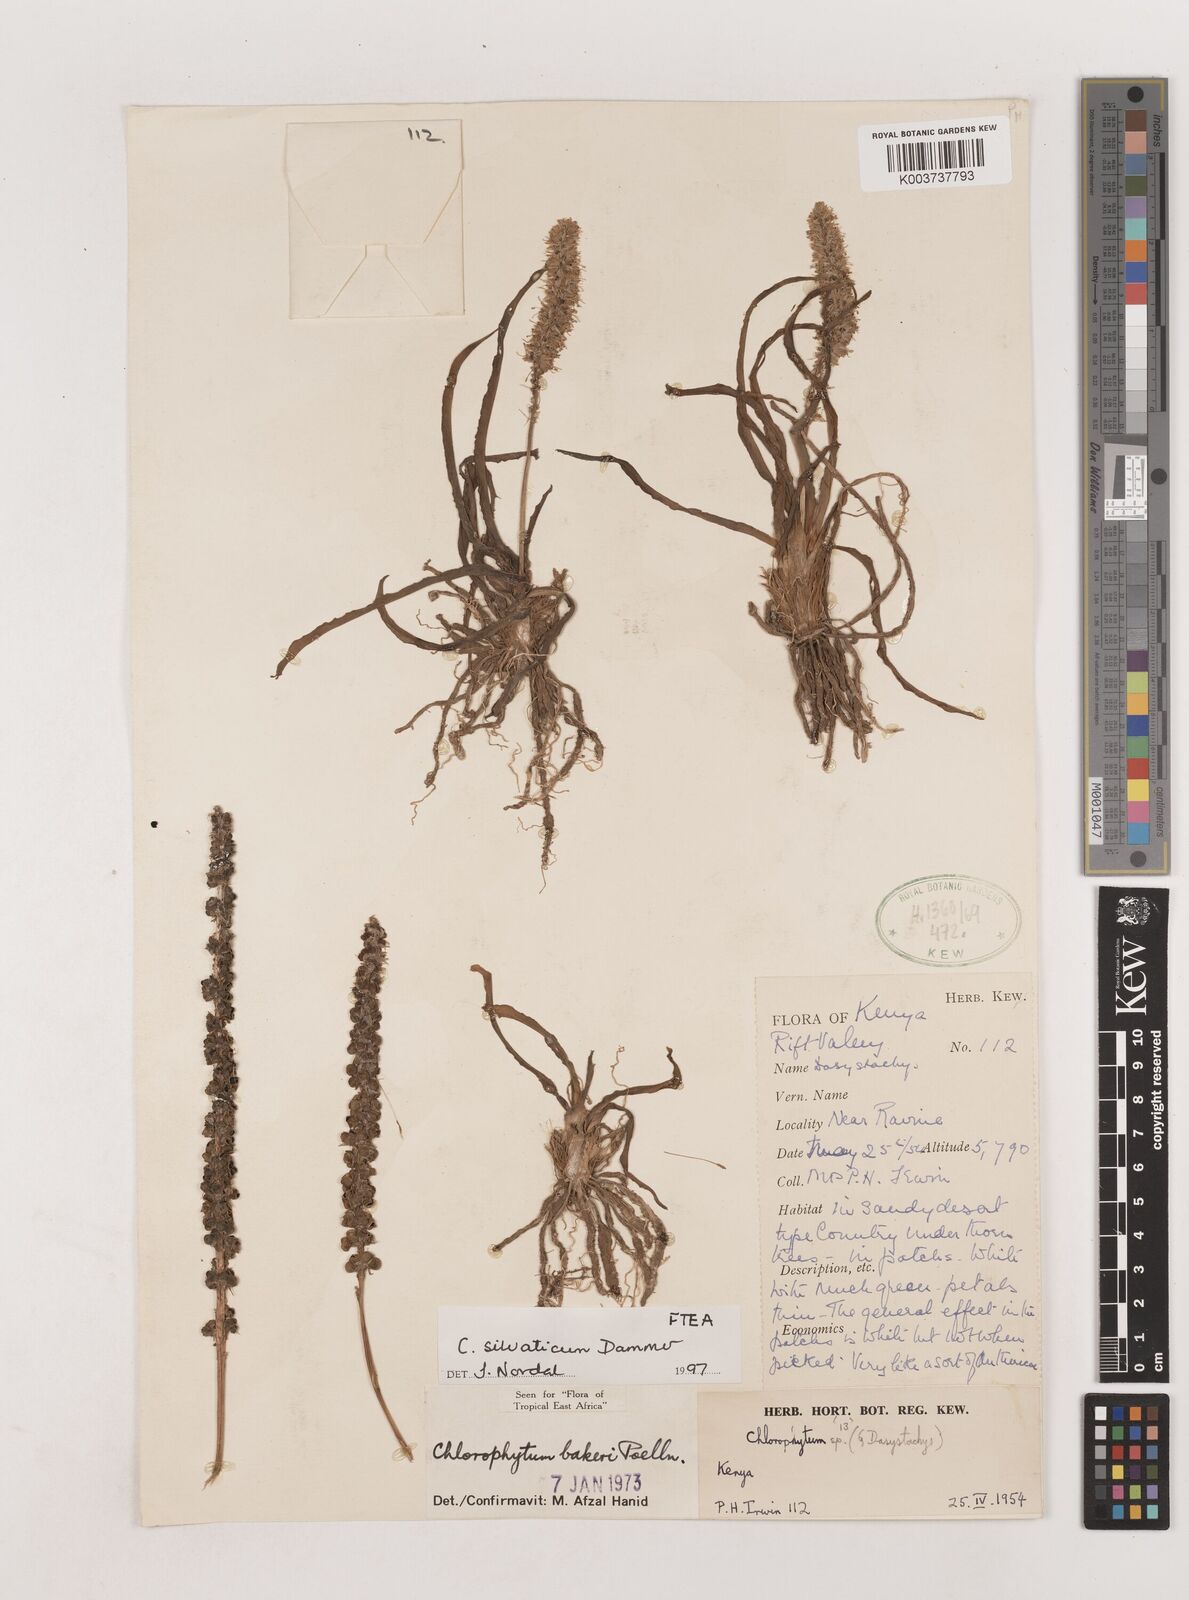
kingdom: Plantae
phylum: Tracheophyta
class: Liliopsida
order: Asparagales
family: Asparagaceae
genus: Chlorophytum
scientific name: Chlorophytum africanum
